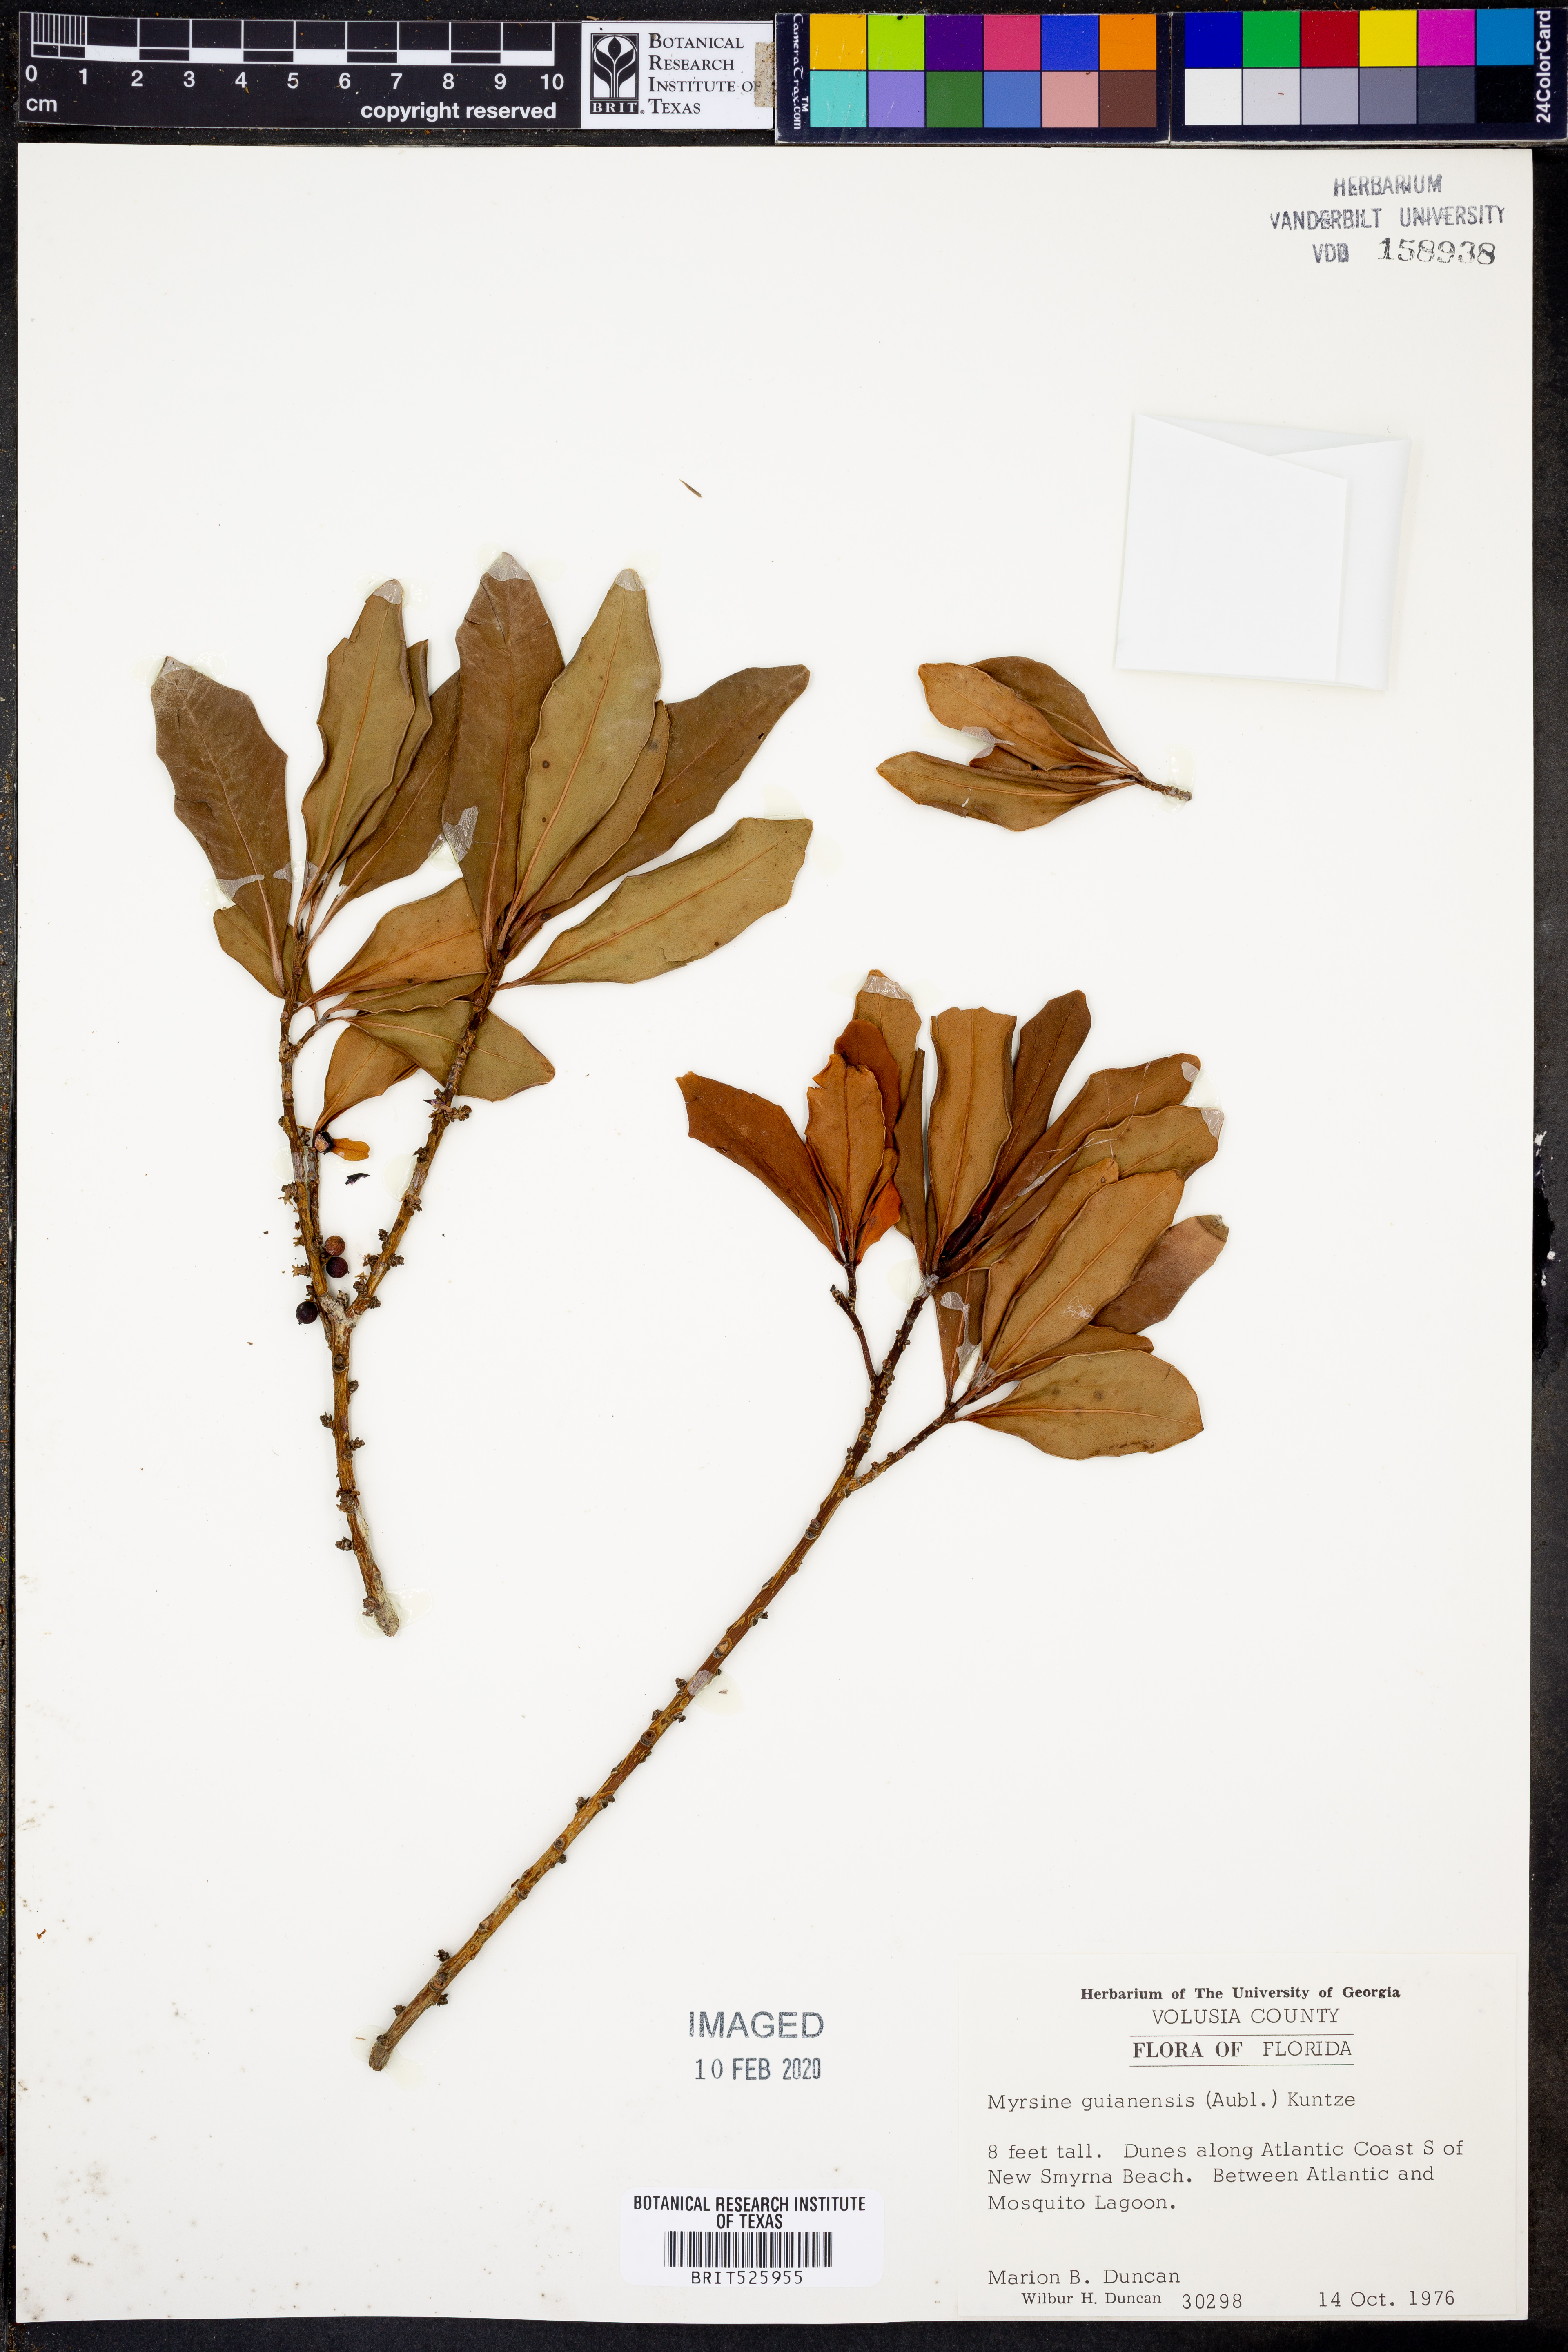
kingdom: Plantae
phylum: Tracheophyta
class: Magnoliopsida
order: Ericales
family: Primulaceae
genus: Myrsine
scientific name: Myrsine guianensis
